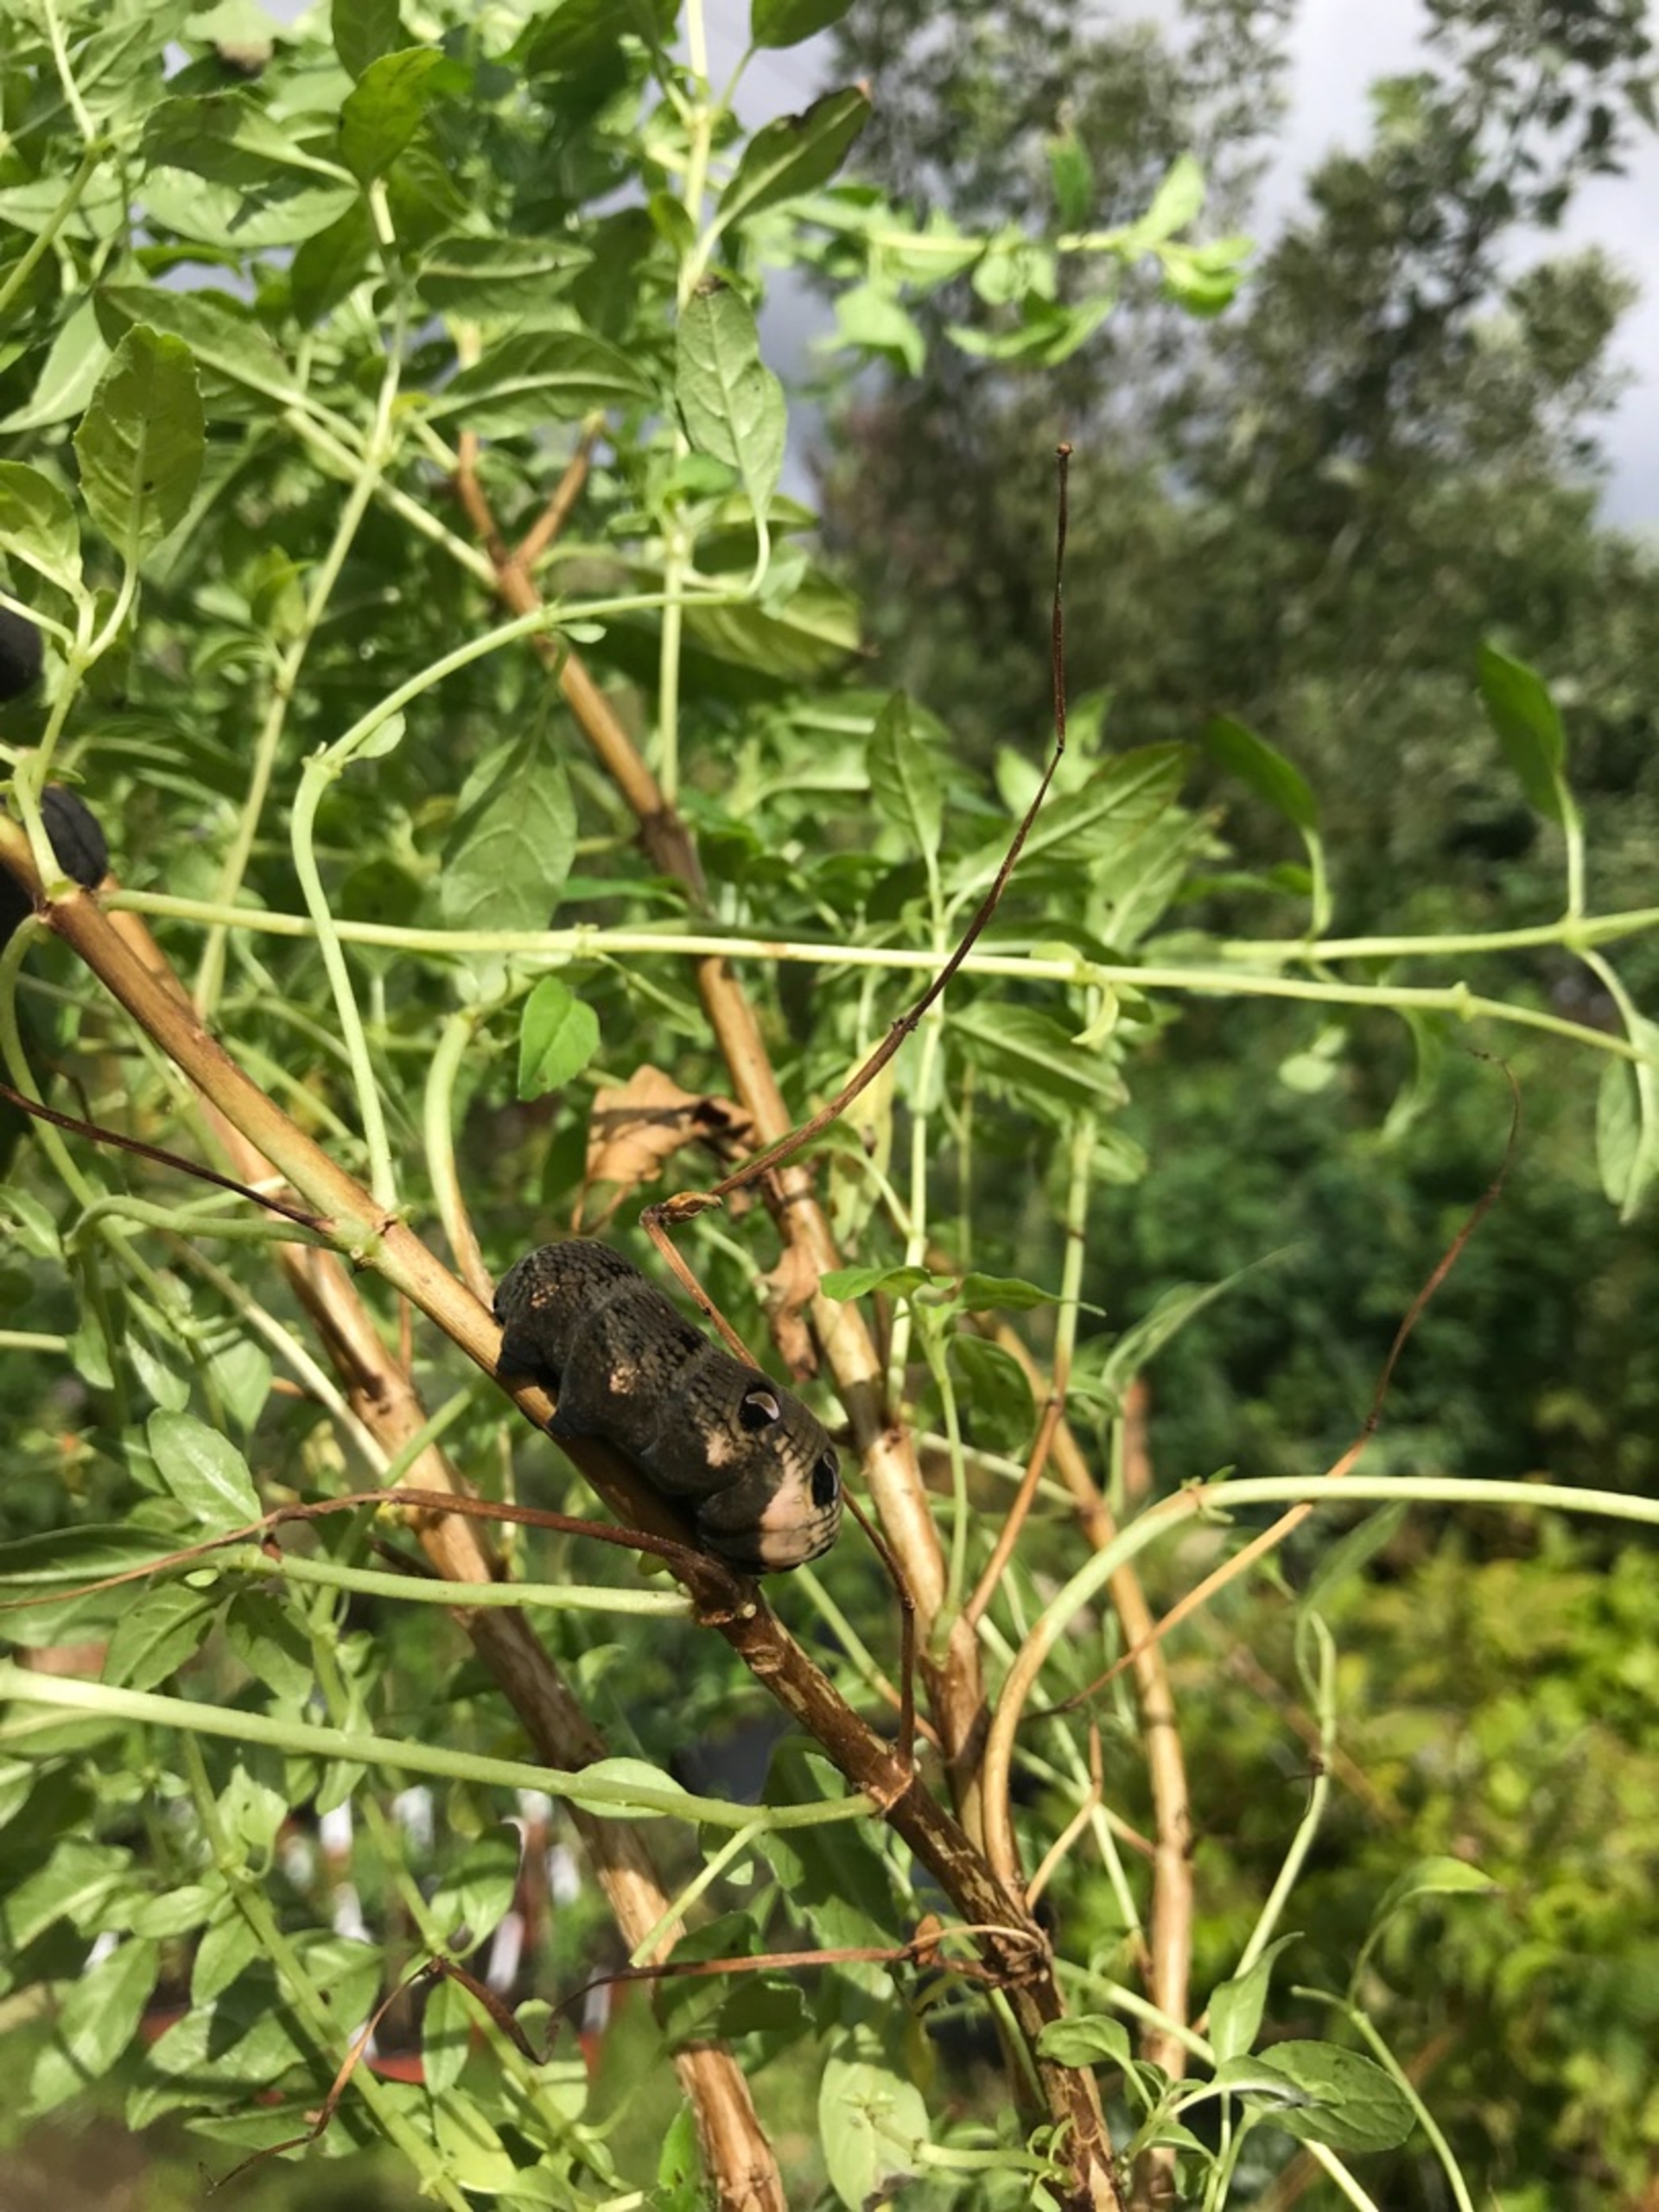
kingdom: Animalia
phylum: Arthropoda
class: Insecta
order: Lepidoptera
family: Sphingidae
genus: Deilephila
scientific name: Deilephila elpenor
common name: Dueurtsværmer
